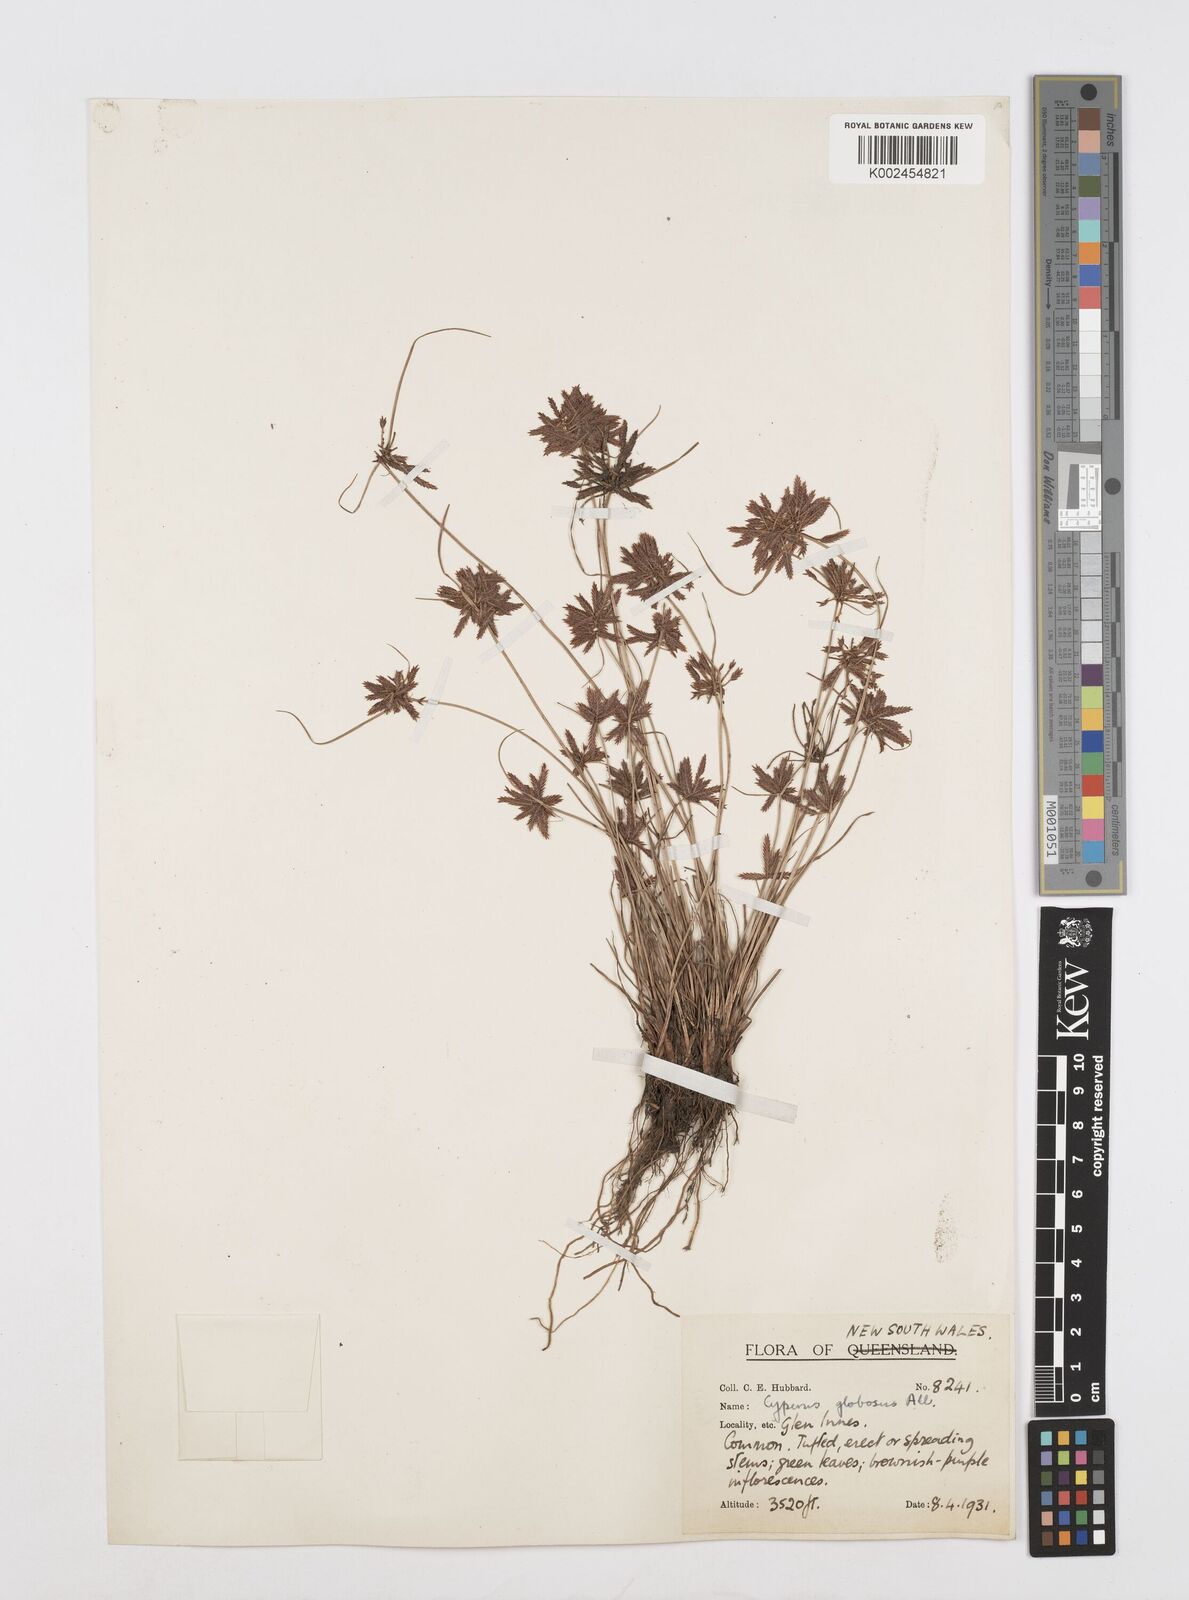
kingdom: Plantae
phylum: Tracheophyta
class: Liliopsida
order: Poales
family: Cyperaceae
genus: Cyperus
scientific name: Cyperus flavidus
